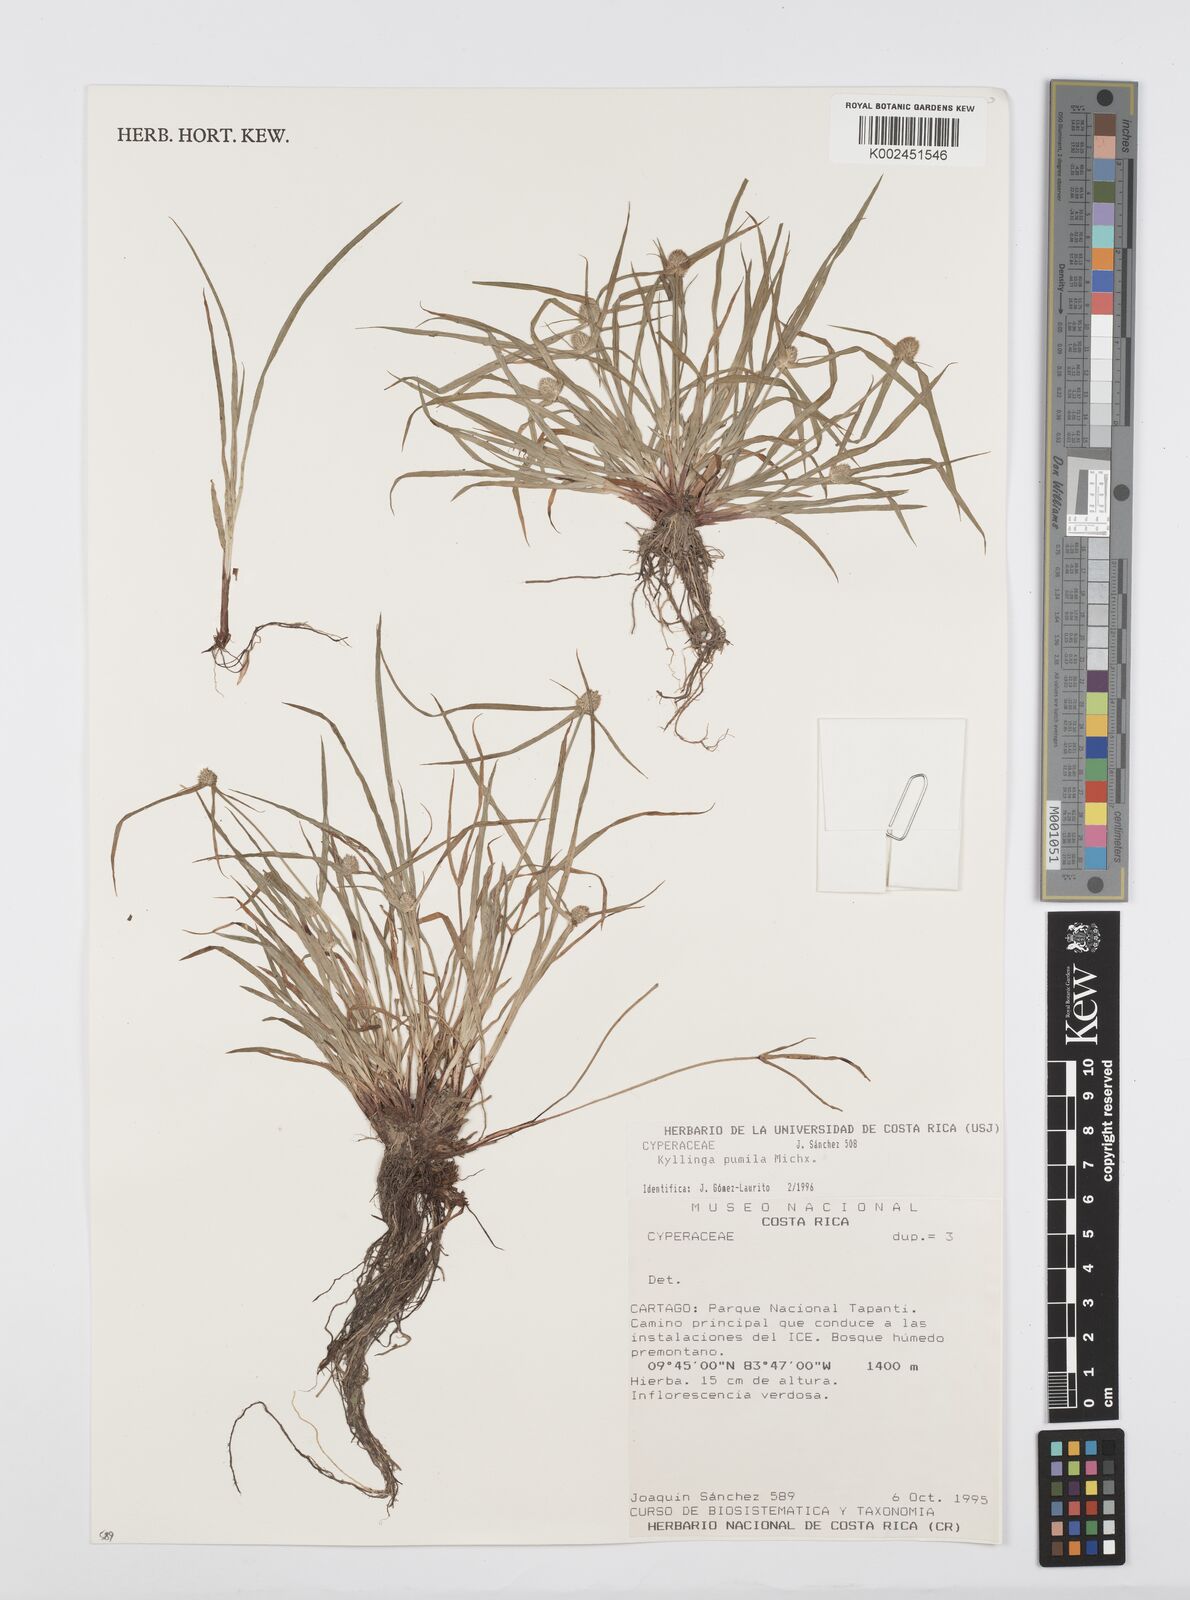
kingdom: Plantae
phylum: Tracheophyta
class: Liliopsida
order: Poales
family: Cyperaceae
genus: Cyperus
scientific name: Cyperus
